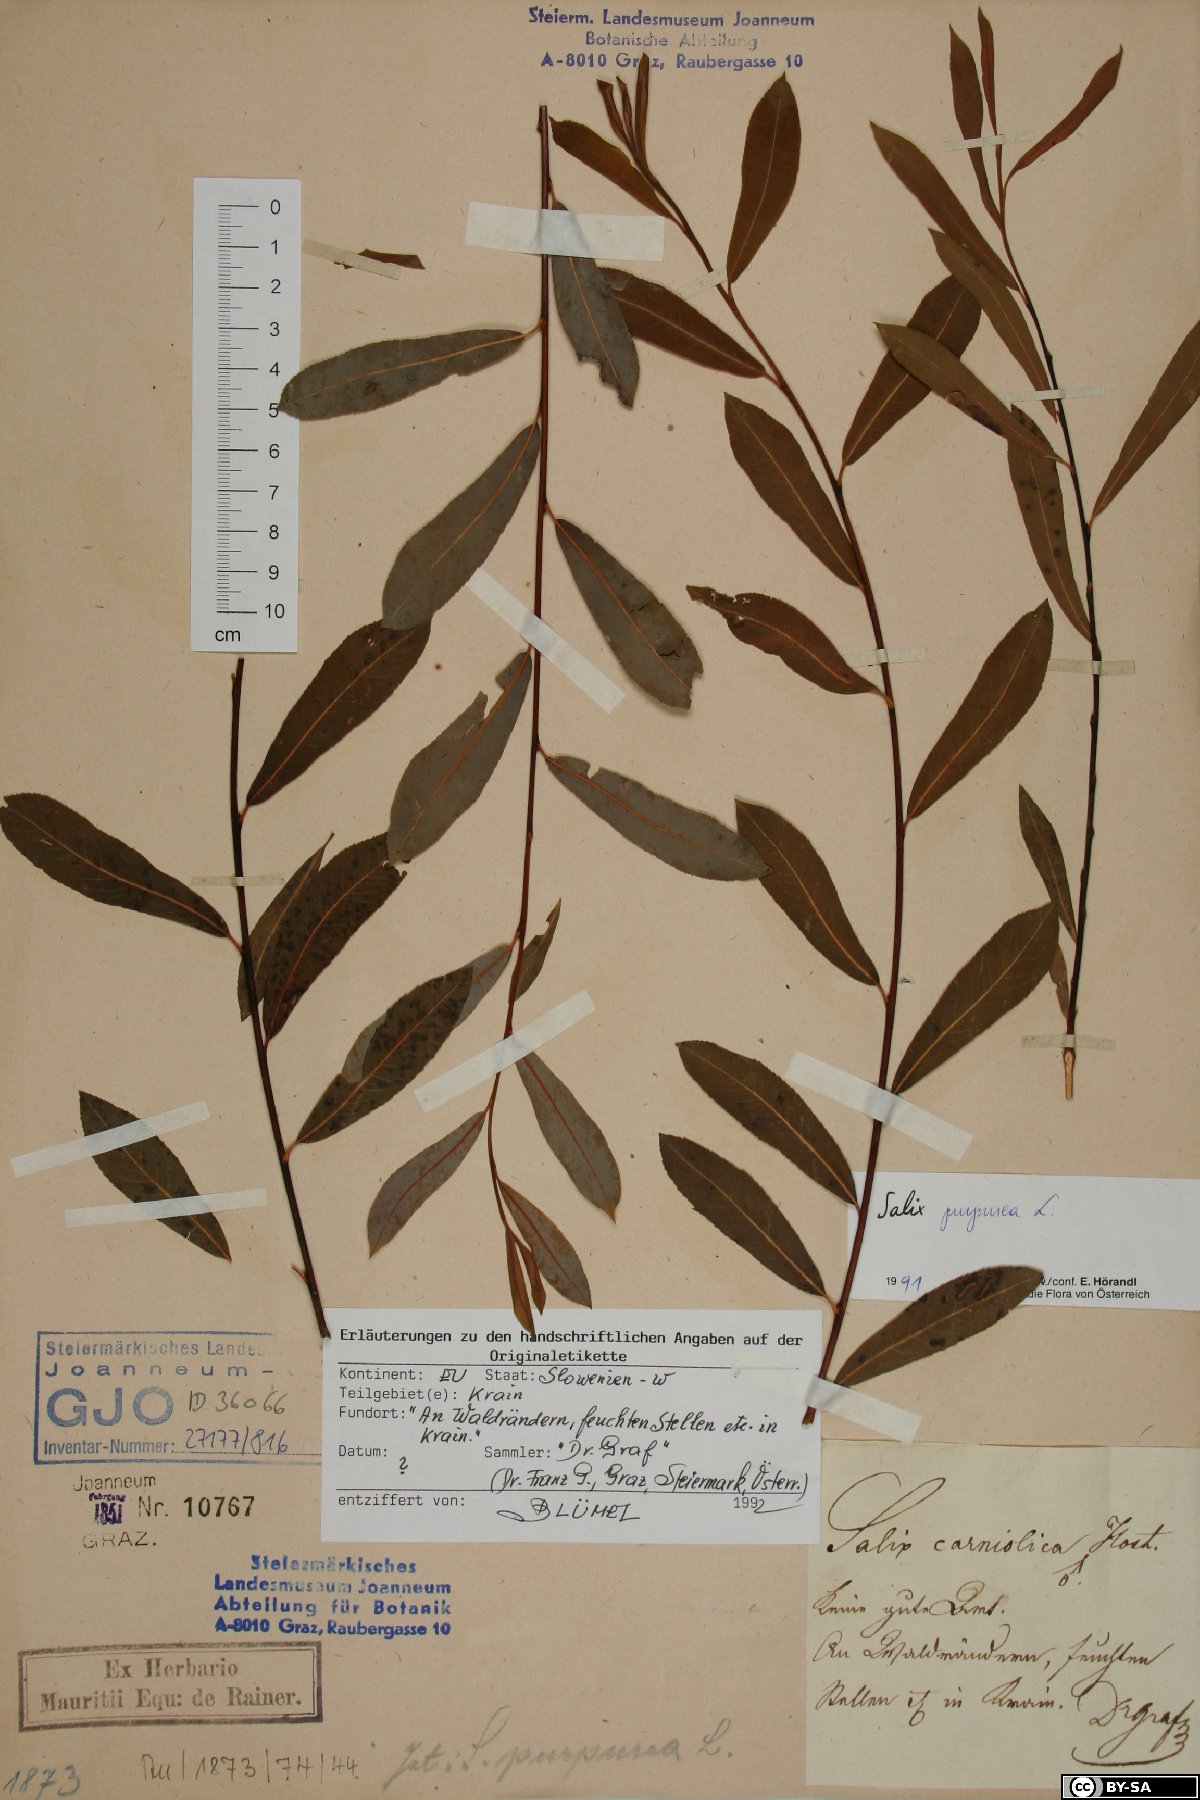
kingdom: Plantae
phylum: Tracheophyta
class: Magnoliopsida
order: Malpighiales
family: Salicaceae
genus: Salix
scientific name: Salix purpurea
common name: Purple willow
